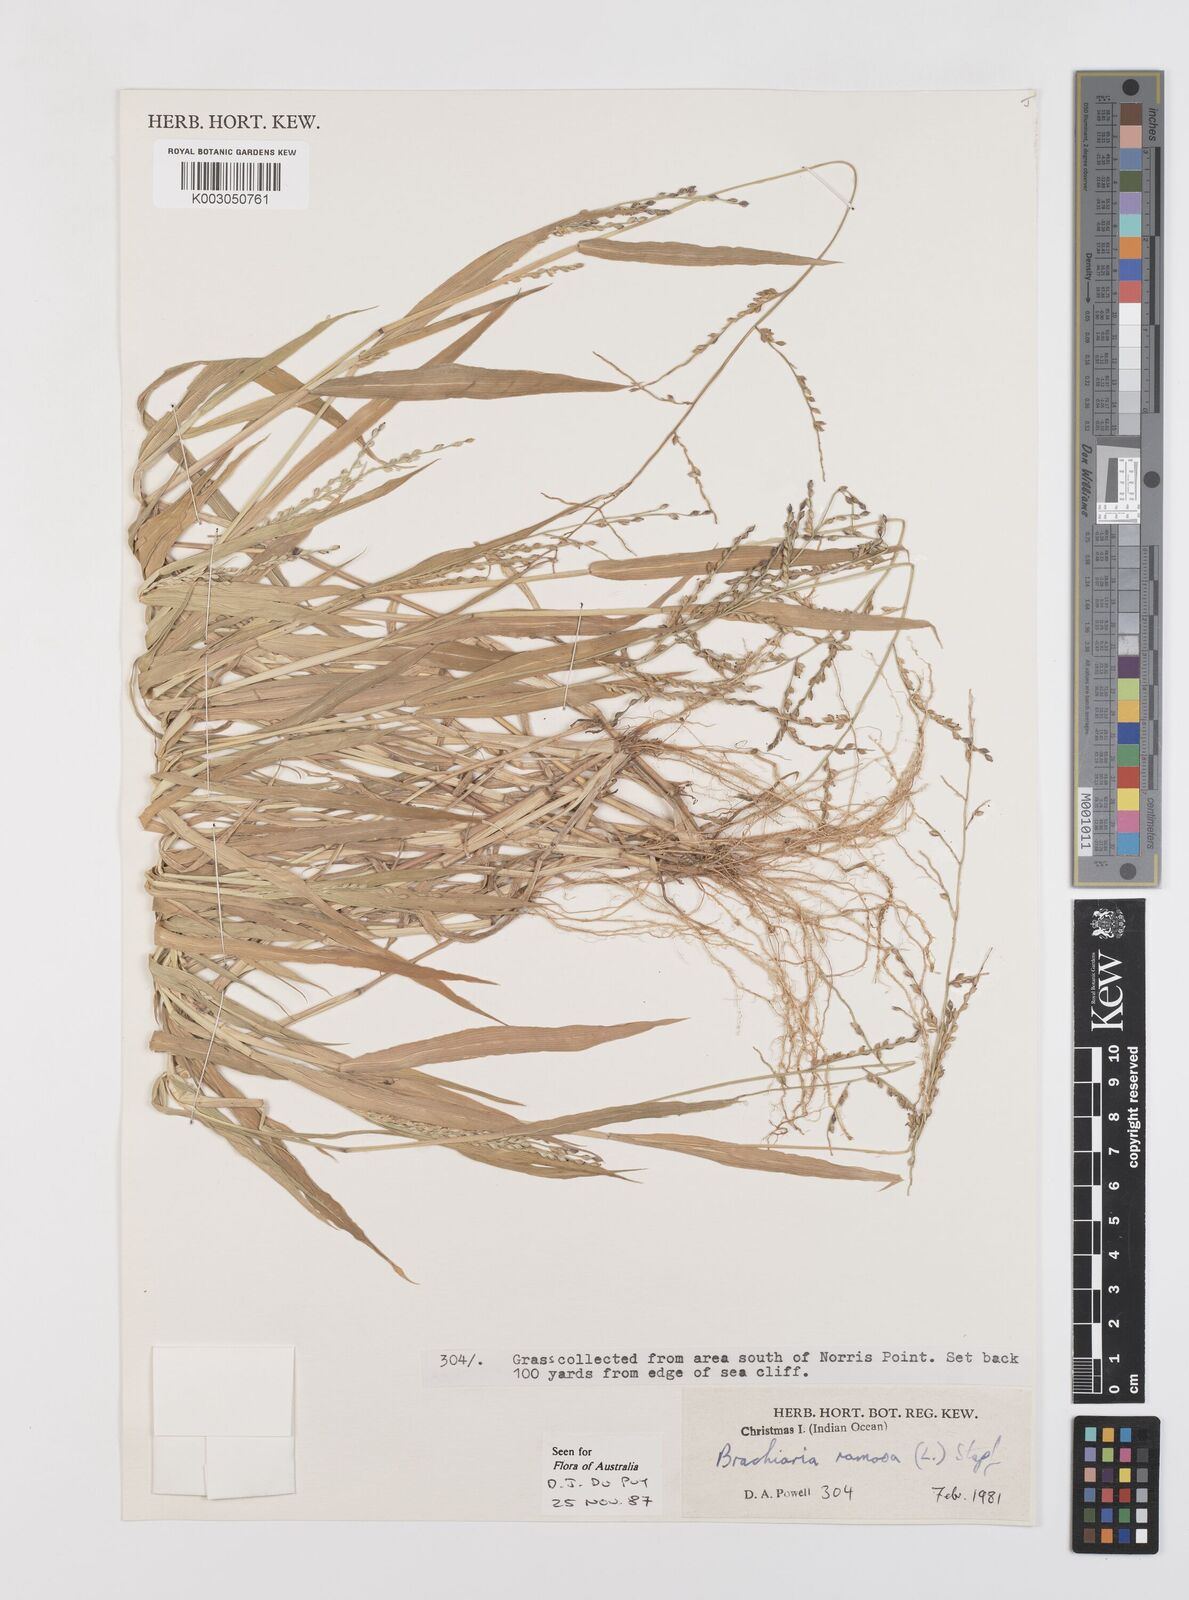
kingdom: Plantae
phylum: Tracheophyta
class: Liliopsida
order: Poales
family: Poaceae
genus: Urochloa
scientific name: Urochloa ramosa
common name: Browntop millet
